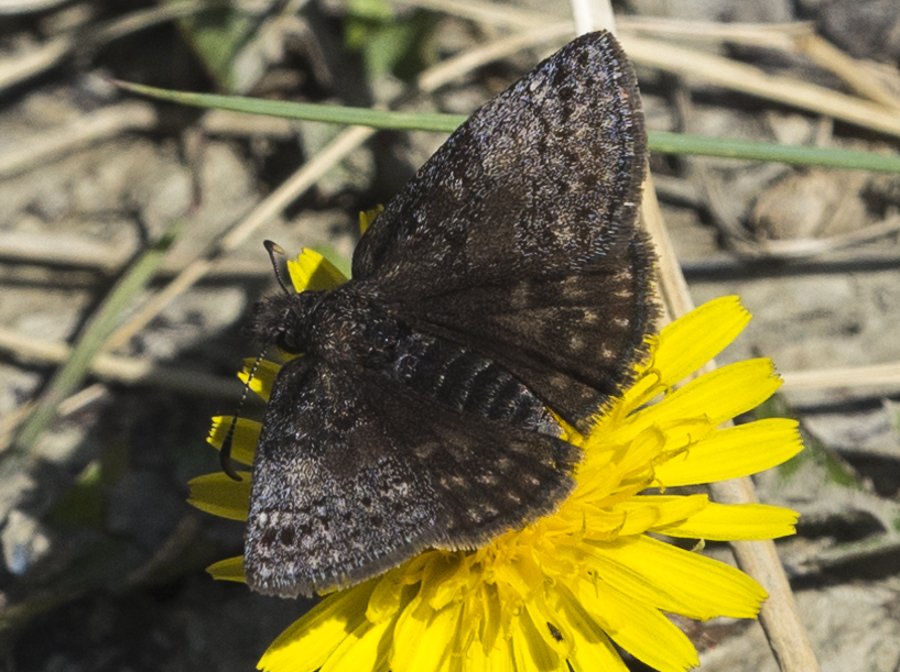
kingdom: Animalia
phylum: Arthropoda
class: Insecta
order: Lepidoptera
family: Hesperiidae
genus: Erynnis
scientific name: Erynnis icelus
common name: Dreamy Duskywing
